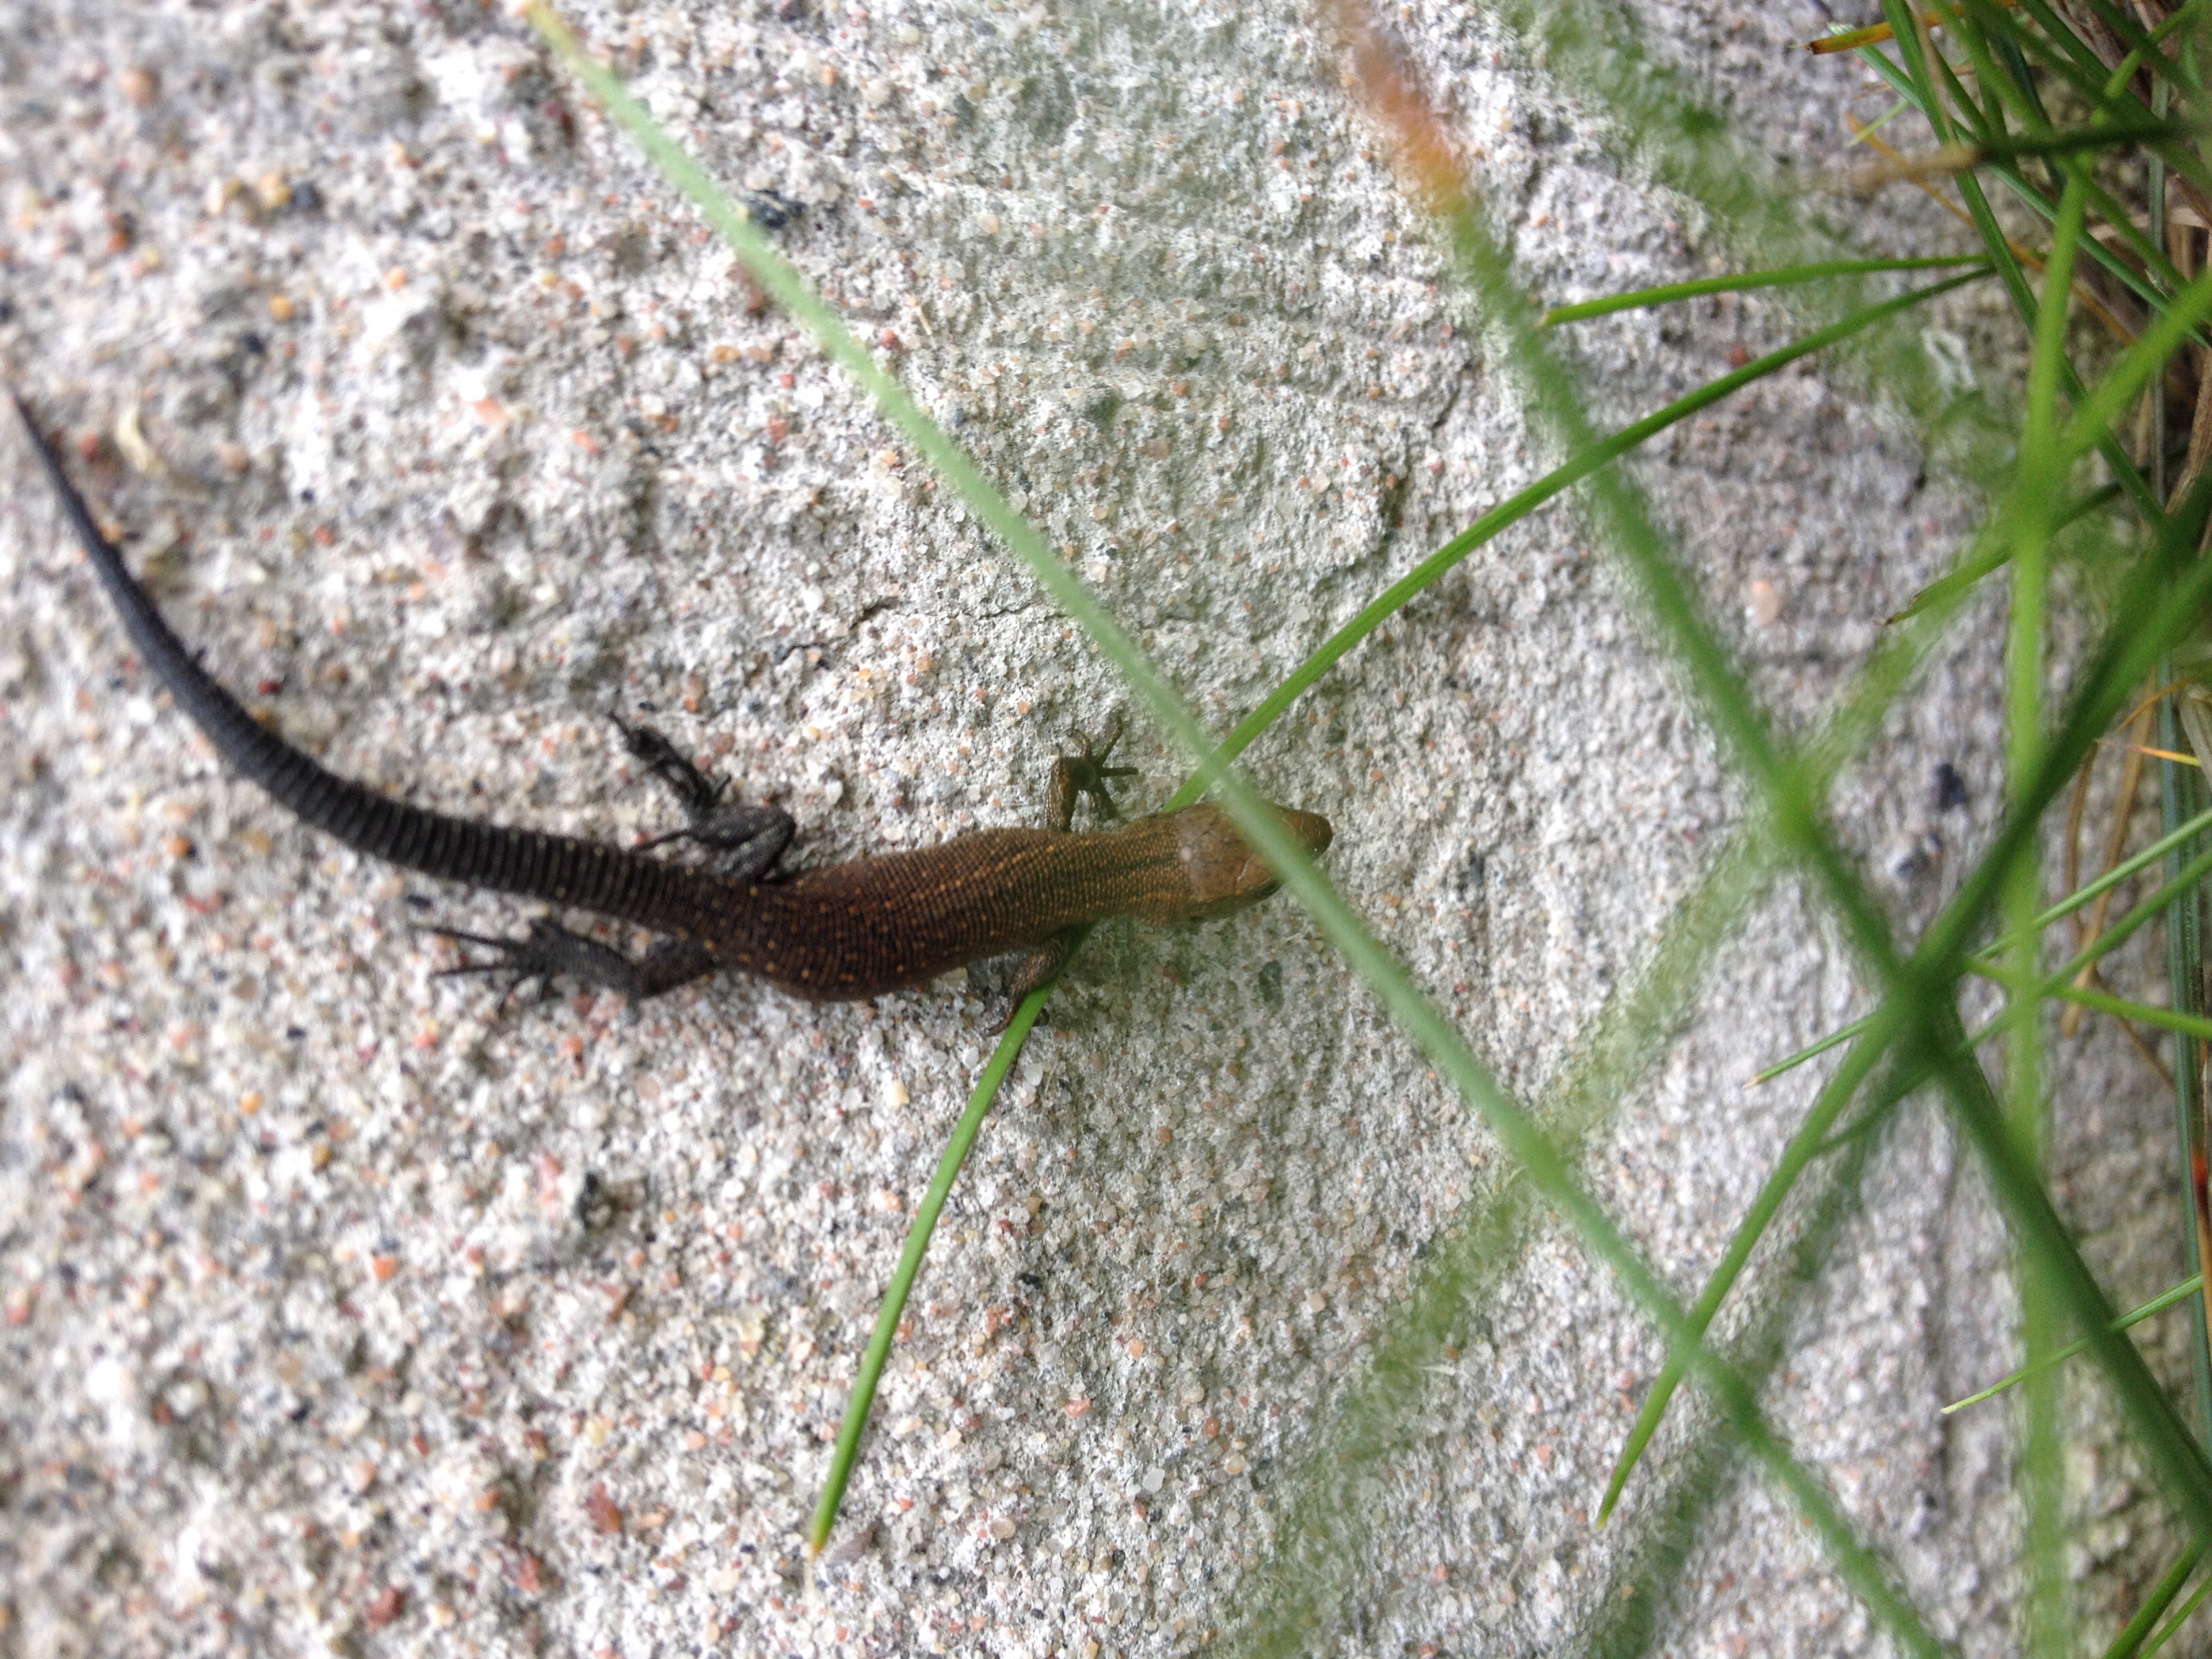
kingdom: Animalia
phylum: Chordata
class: Squamata
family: Lacertidae
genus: Zootoca
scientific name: Zootoca vivipara
